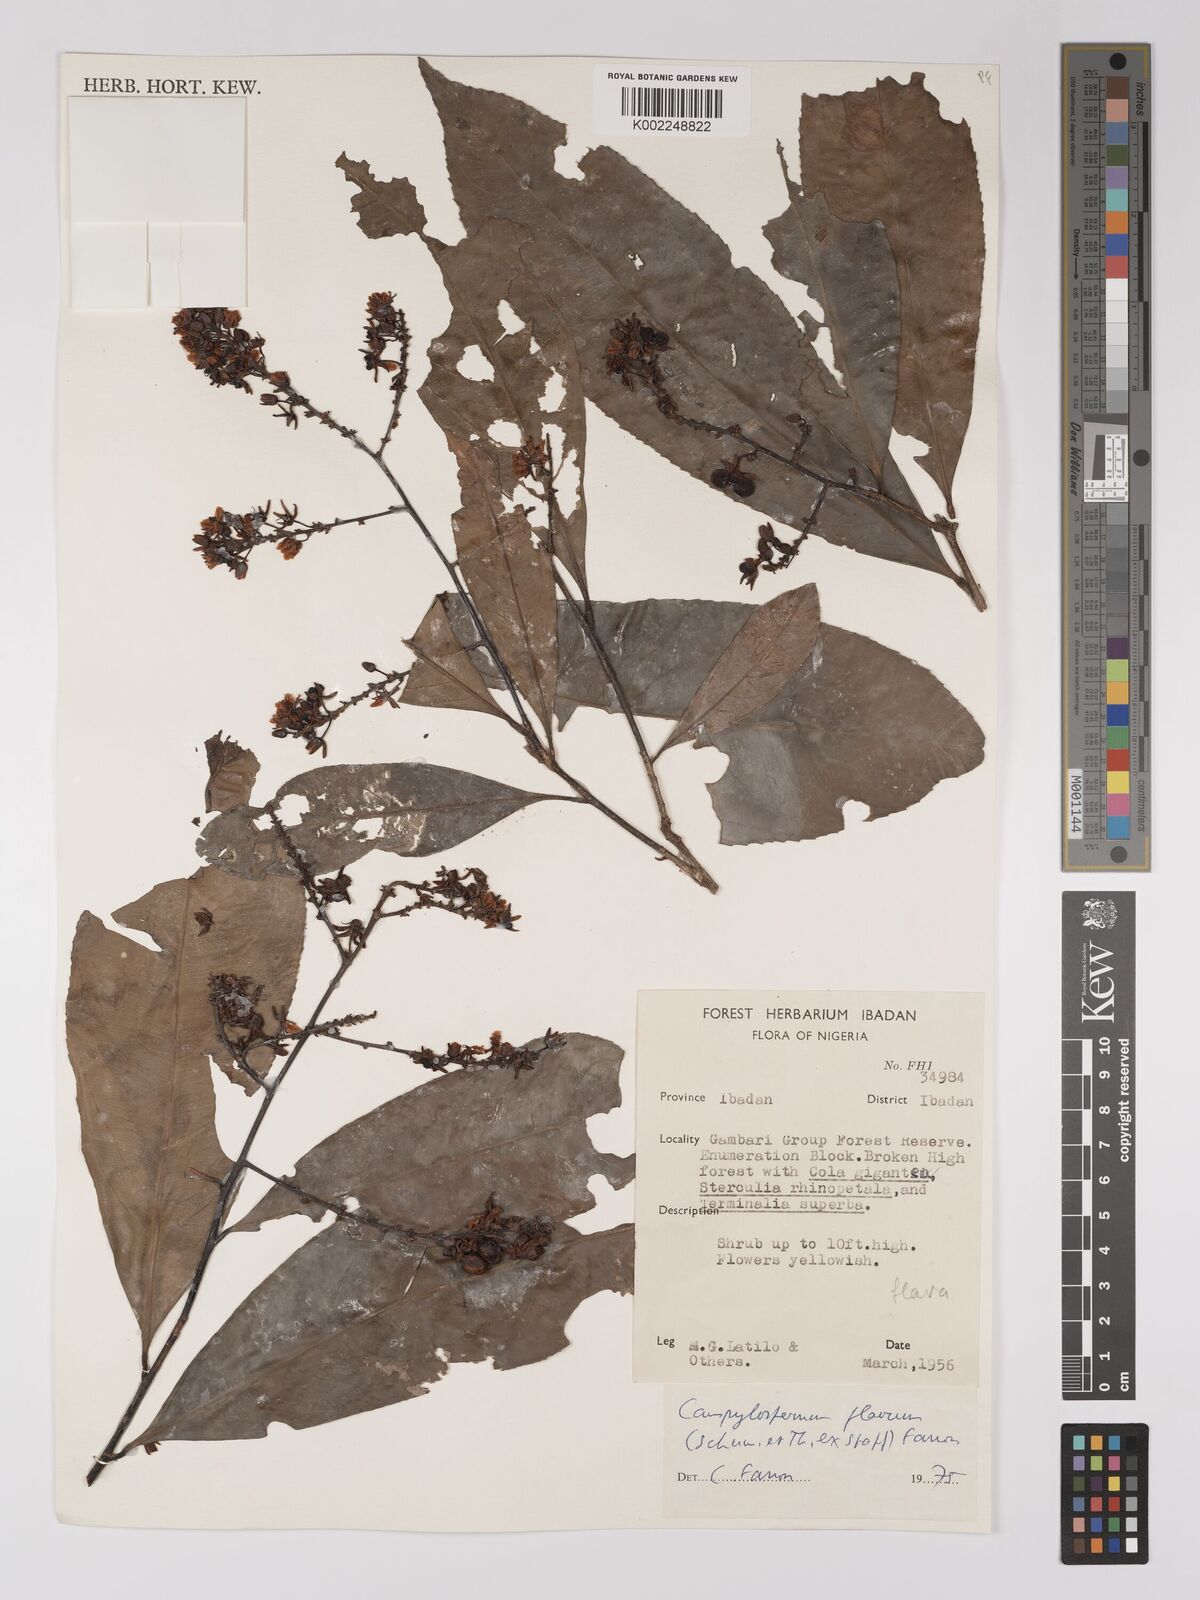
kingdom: Plantae
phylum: Tracheophyta
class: Magnoliopsida
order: Malpighiales
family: Ochnaceae
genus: Campylospermum
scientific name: Campylospermum flavum
